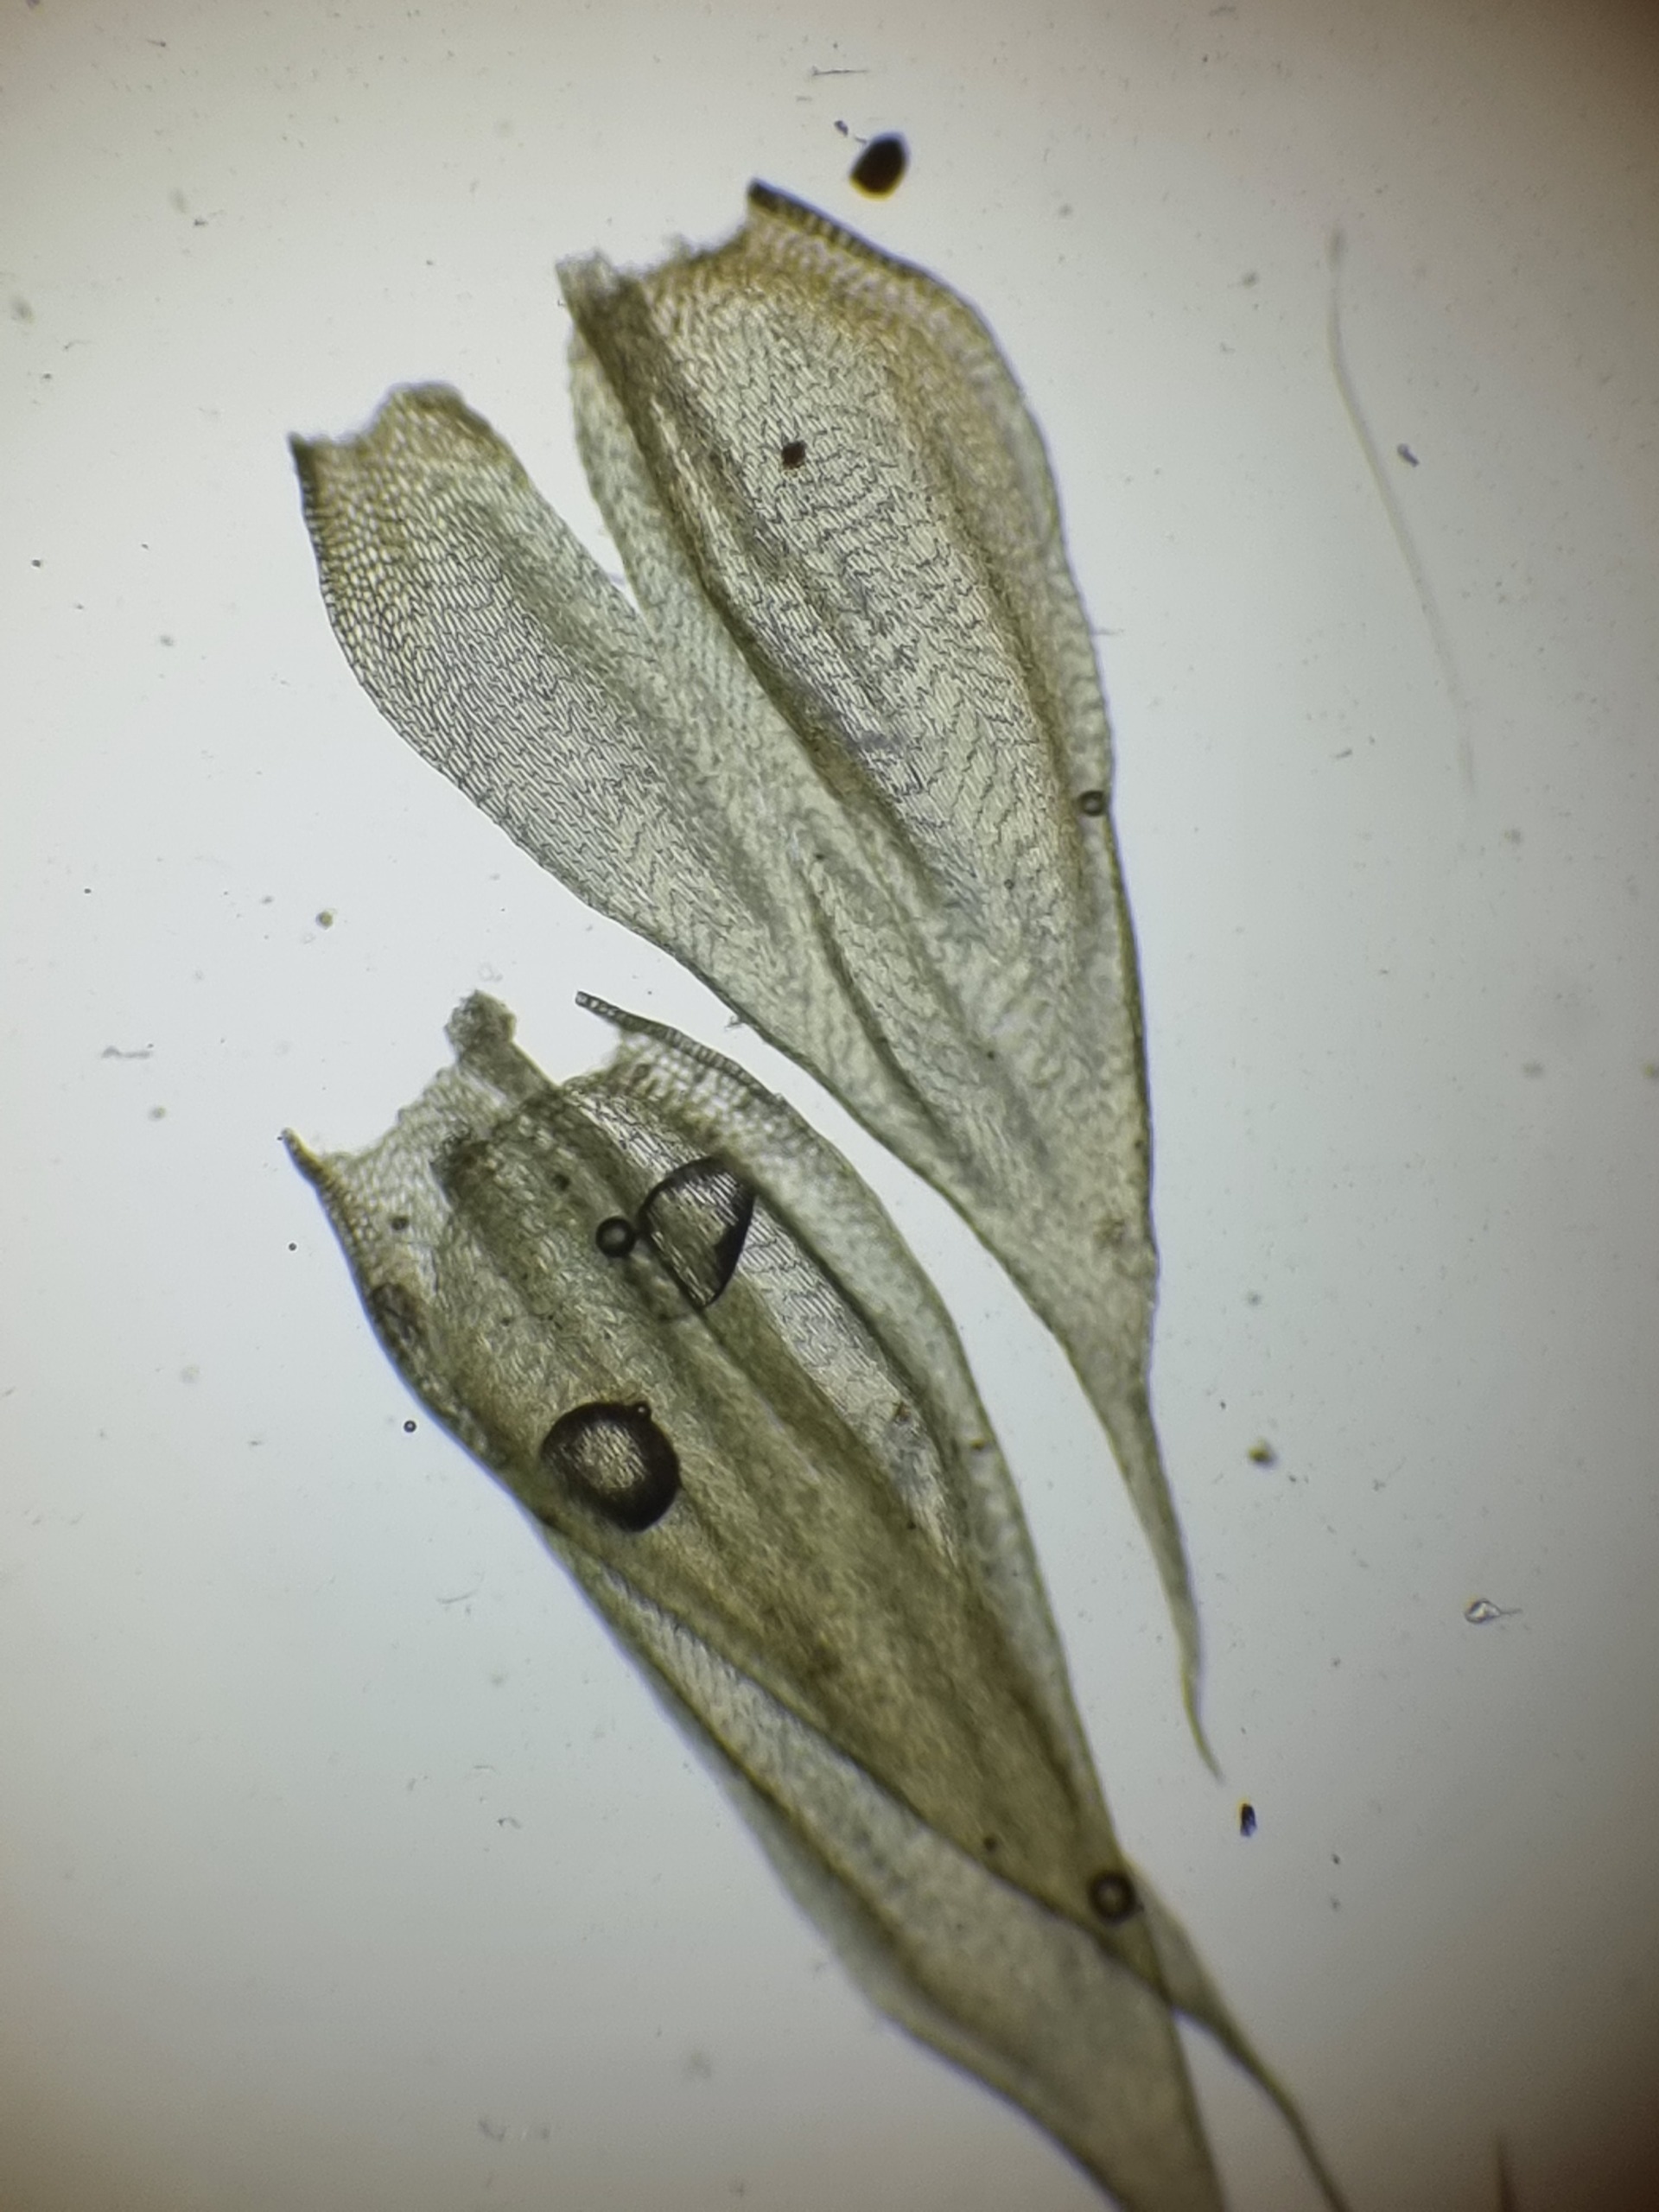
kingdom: Plantae
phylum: Bryophyta
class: Bryopsida
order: Hypnales
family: Brachytheciaceae
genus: Brachythecium
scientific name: Brachythecium albicans
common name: Hvidlig kortkapsel
